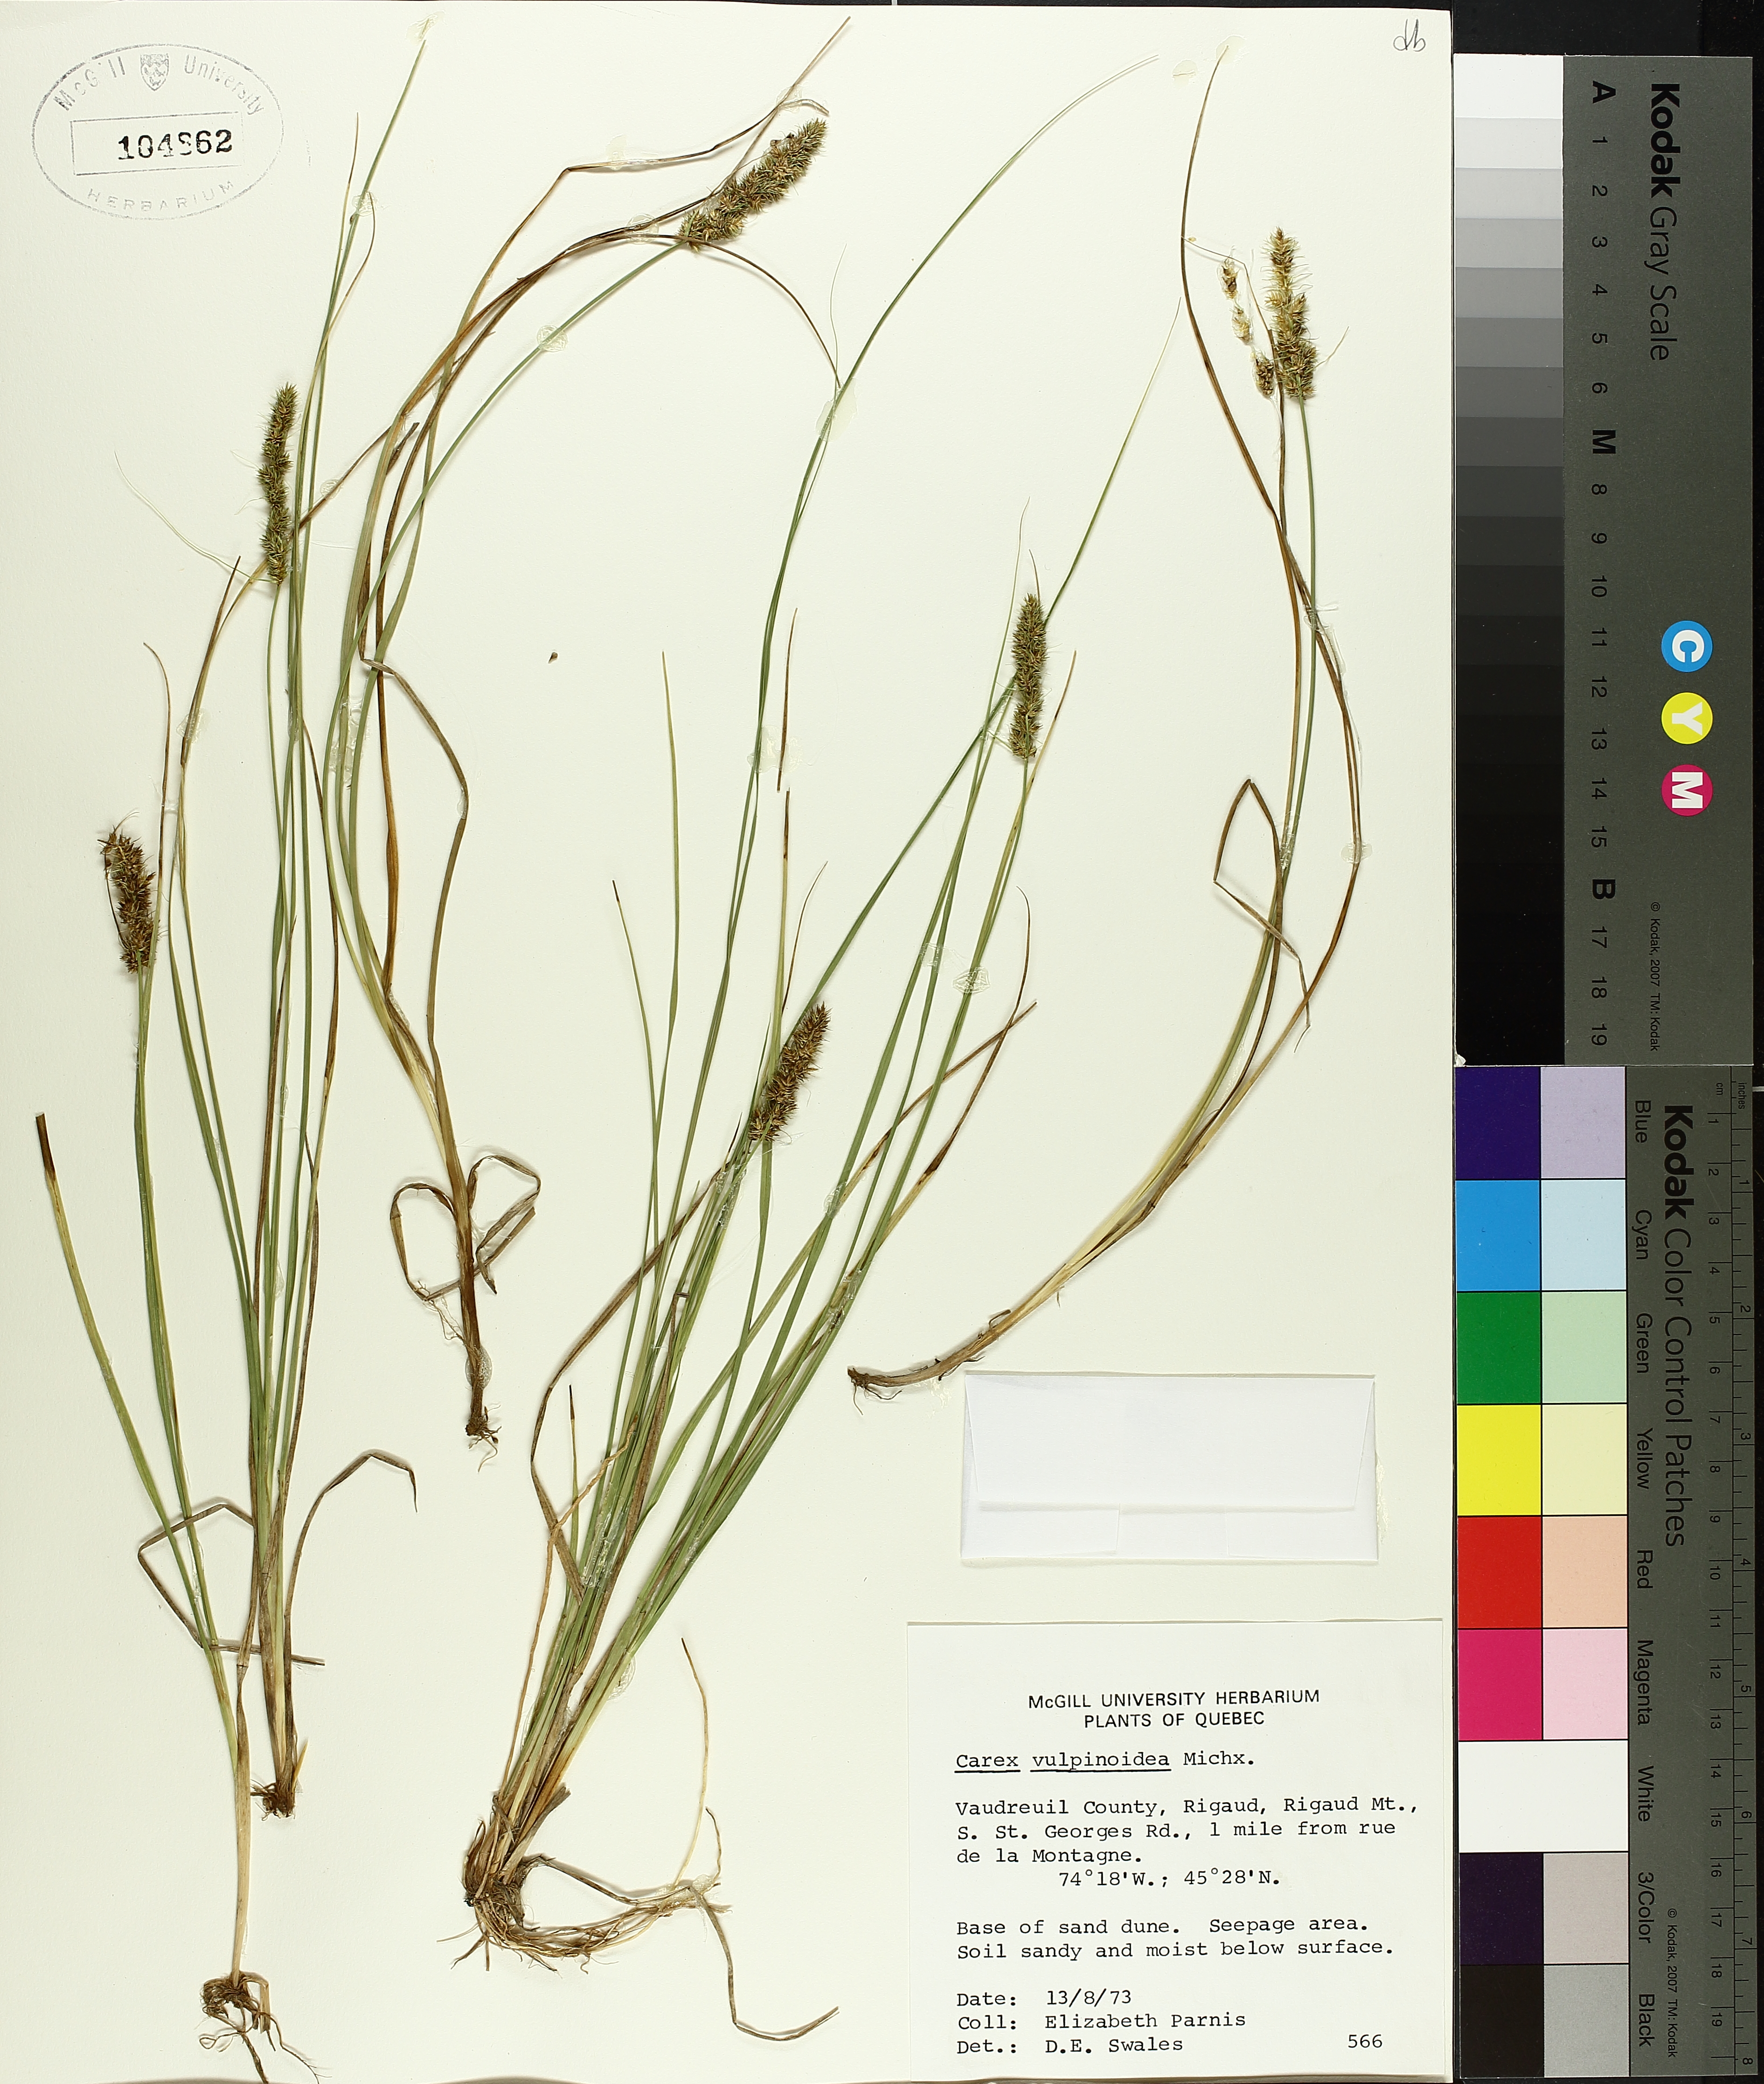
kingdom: Plantae
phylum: Tracheophyta
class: Liliopsida
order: Poales
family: Cyperaceae
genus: Carex
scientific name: Carex vulpinoidea
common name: American fox-sedge
